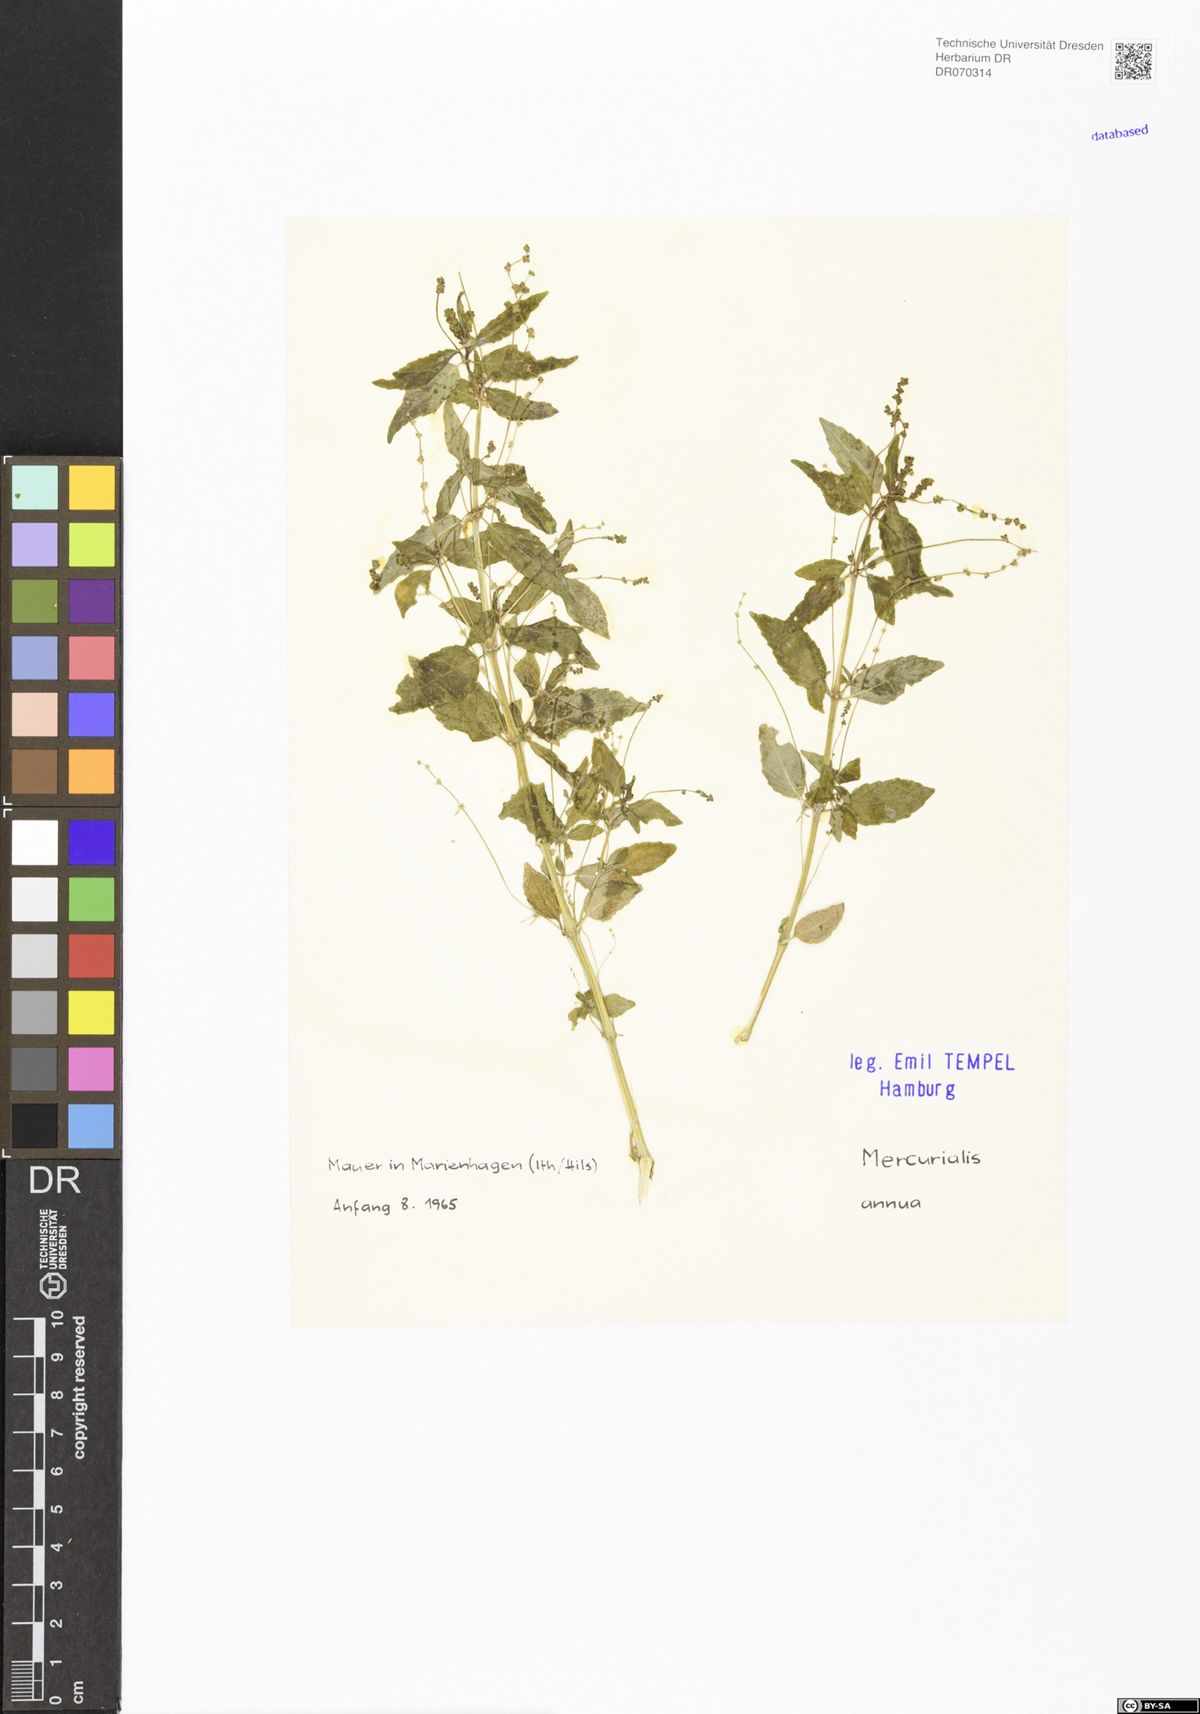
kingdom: Plantae
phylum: Tracheophyta
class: Magnoliopsida
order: Malpighiales
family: Euphorbiaceae
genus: Mercurialis
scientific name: Mercurialis annua
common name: Annual mercury
